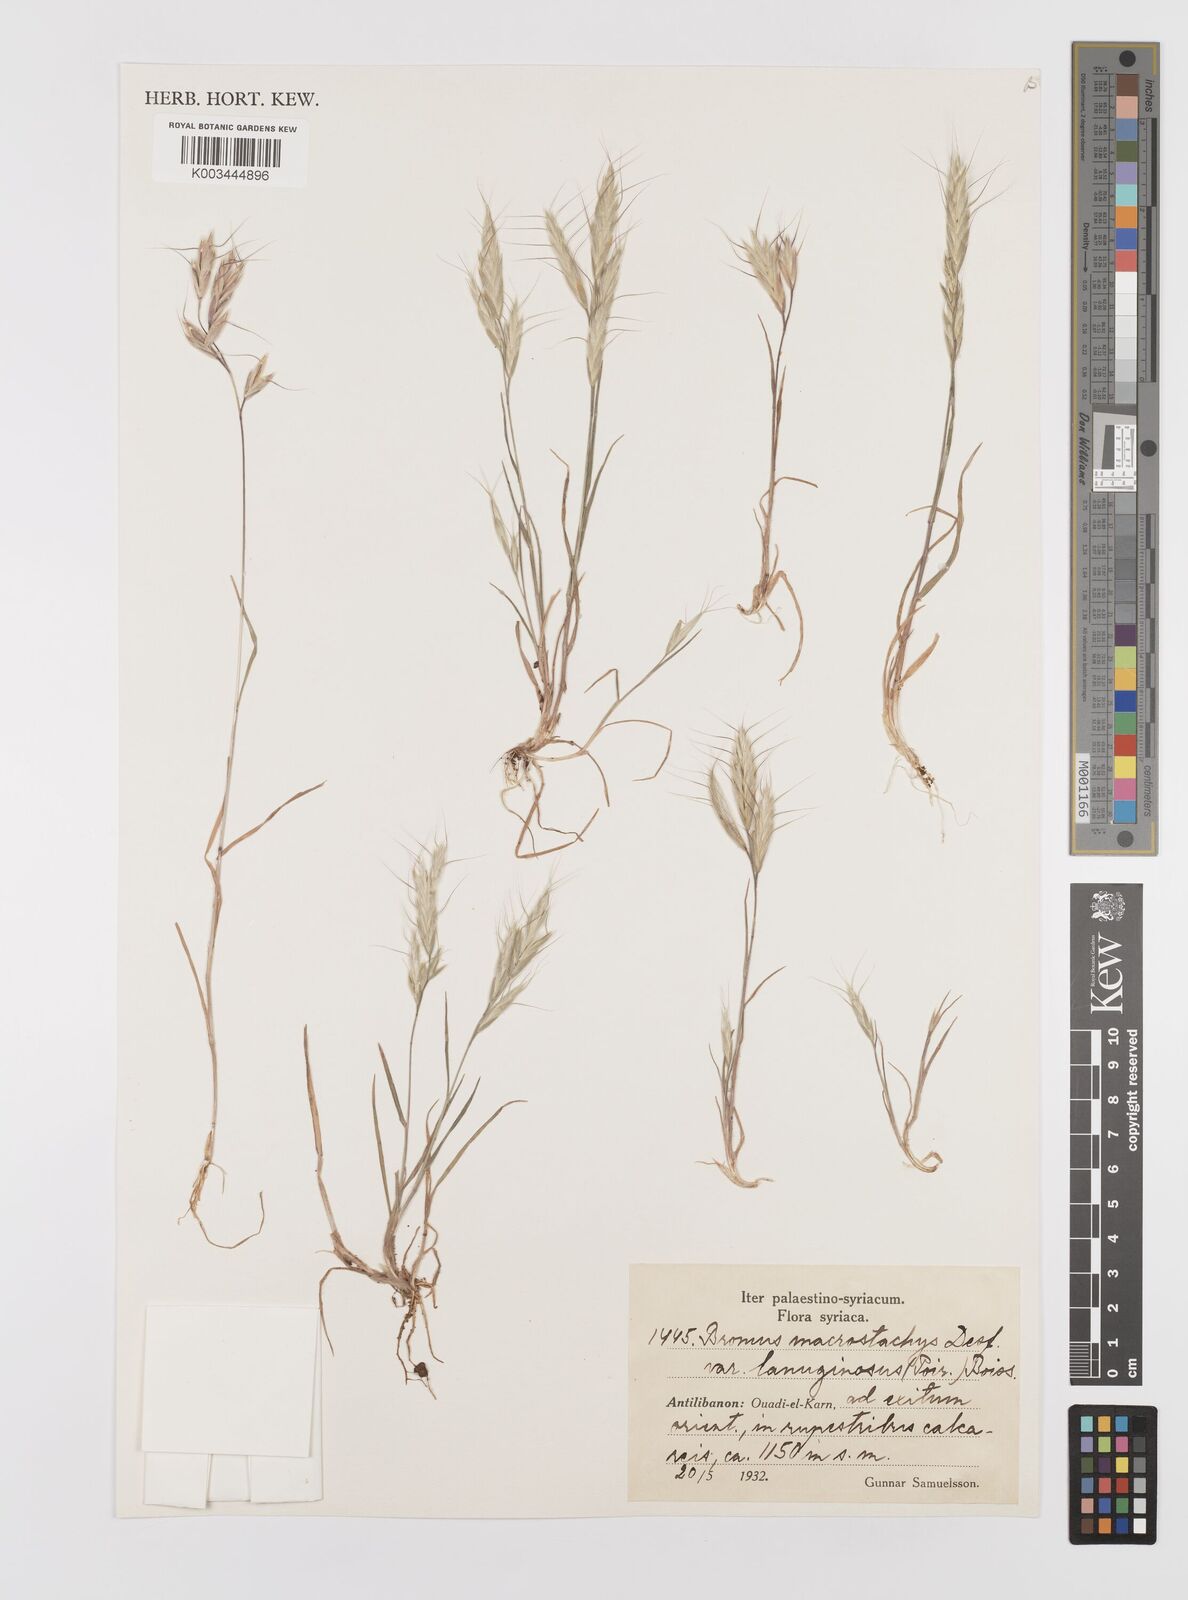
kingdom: Plantae
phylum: Tracheophyta
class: Liliopsida
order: Poales
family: Poaceae
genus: Bromus
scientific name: Bromus lanceolatus
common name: Mediterranean brome
